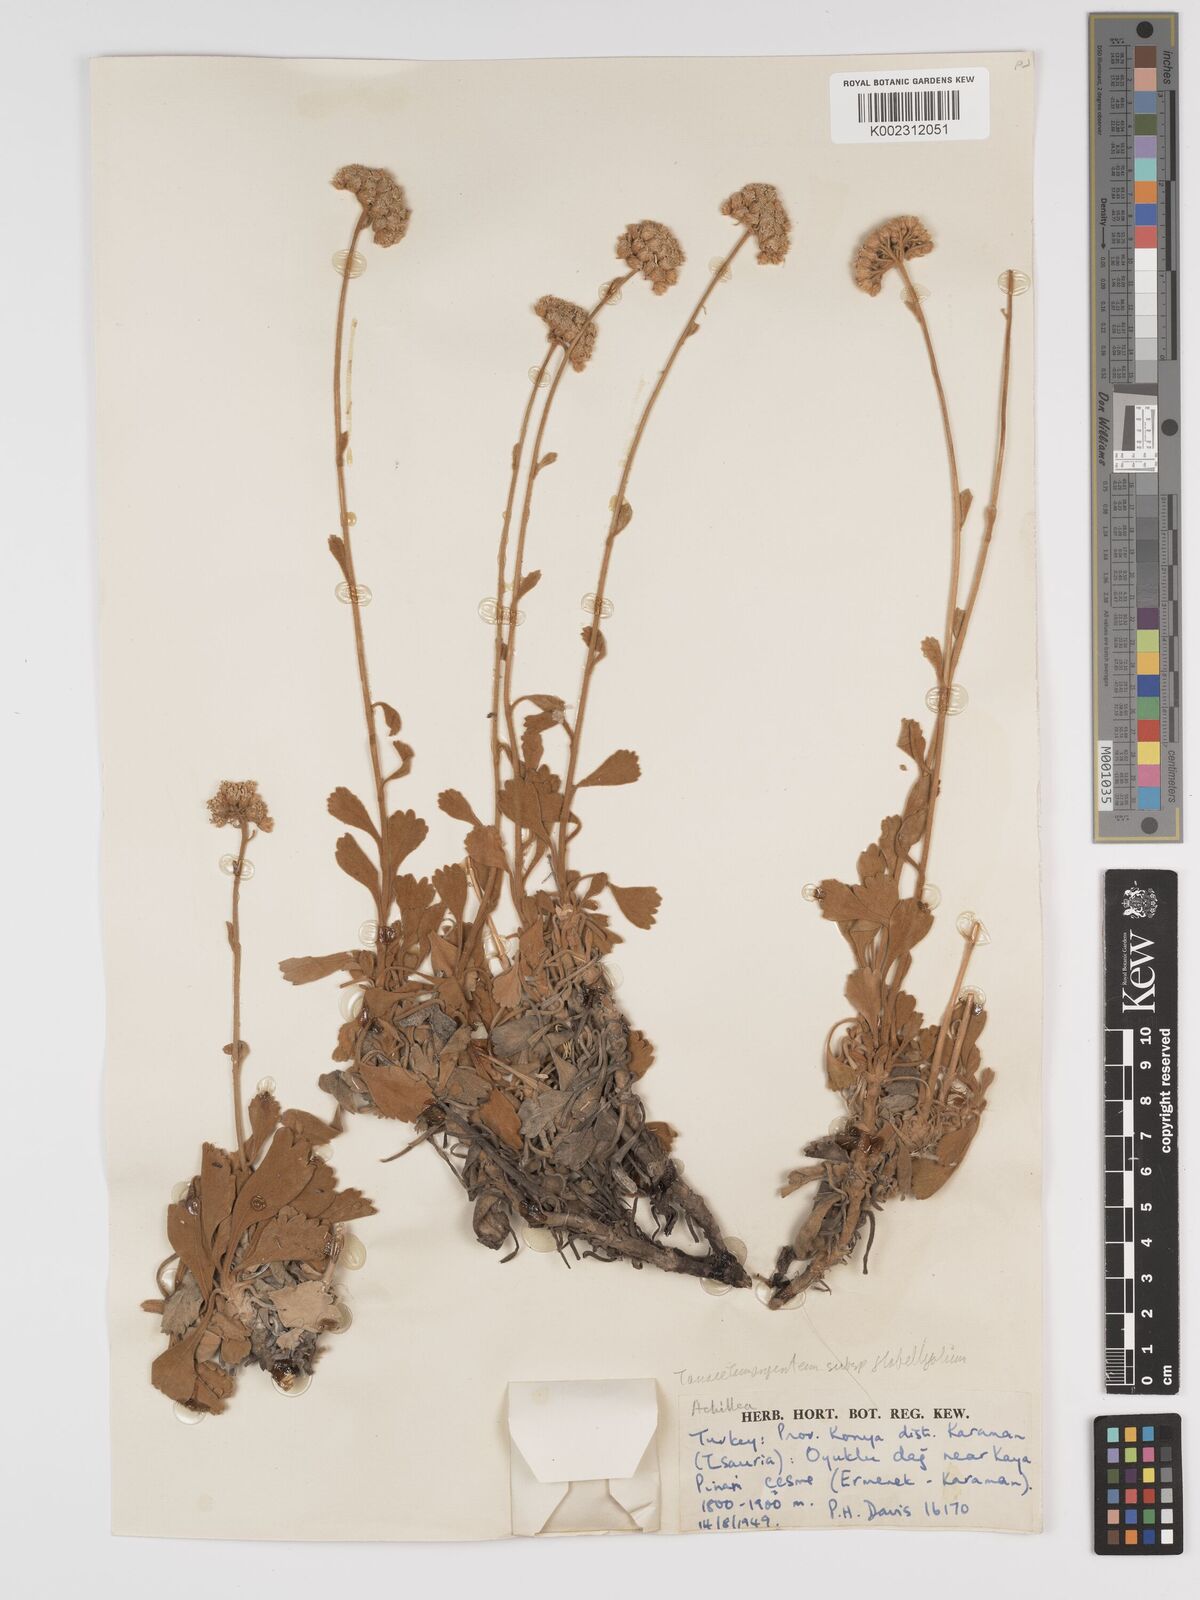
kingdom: Plantae
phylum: Tracheophyta
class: Magnoliopsida
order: Asterales
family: Asteraceae
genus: Tanacetum
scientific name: Tanacetum argenteum
